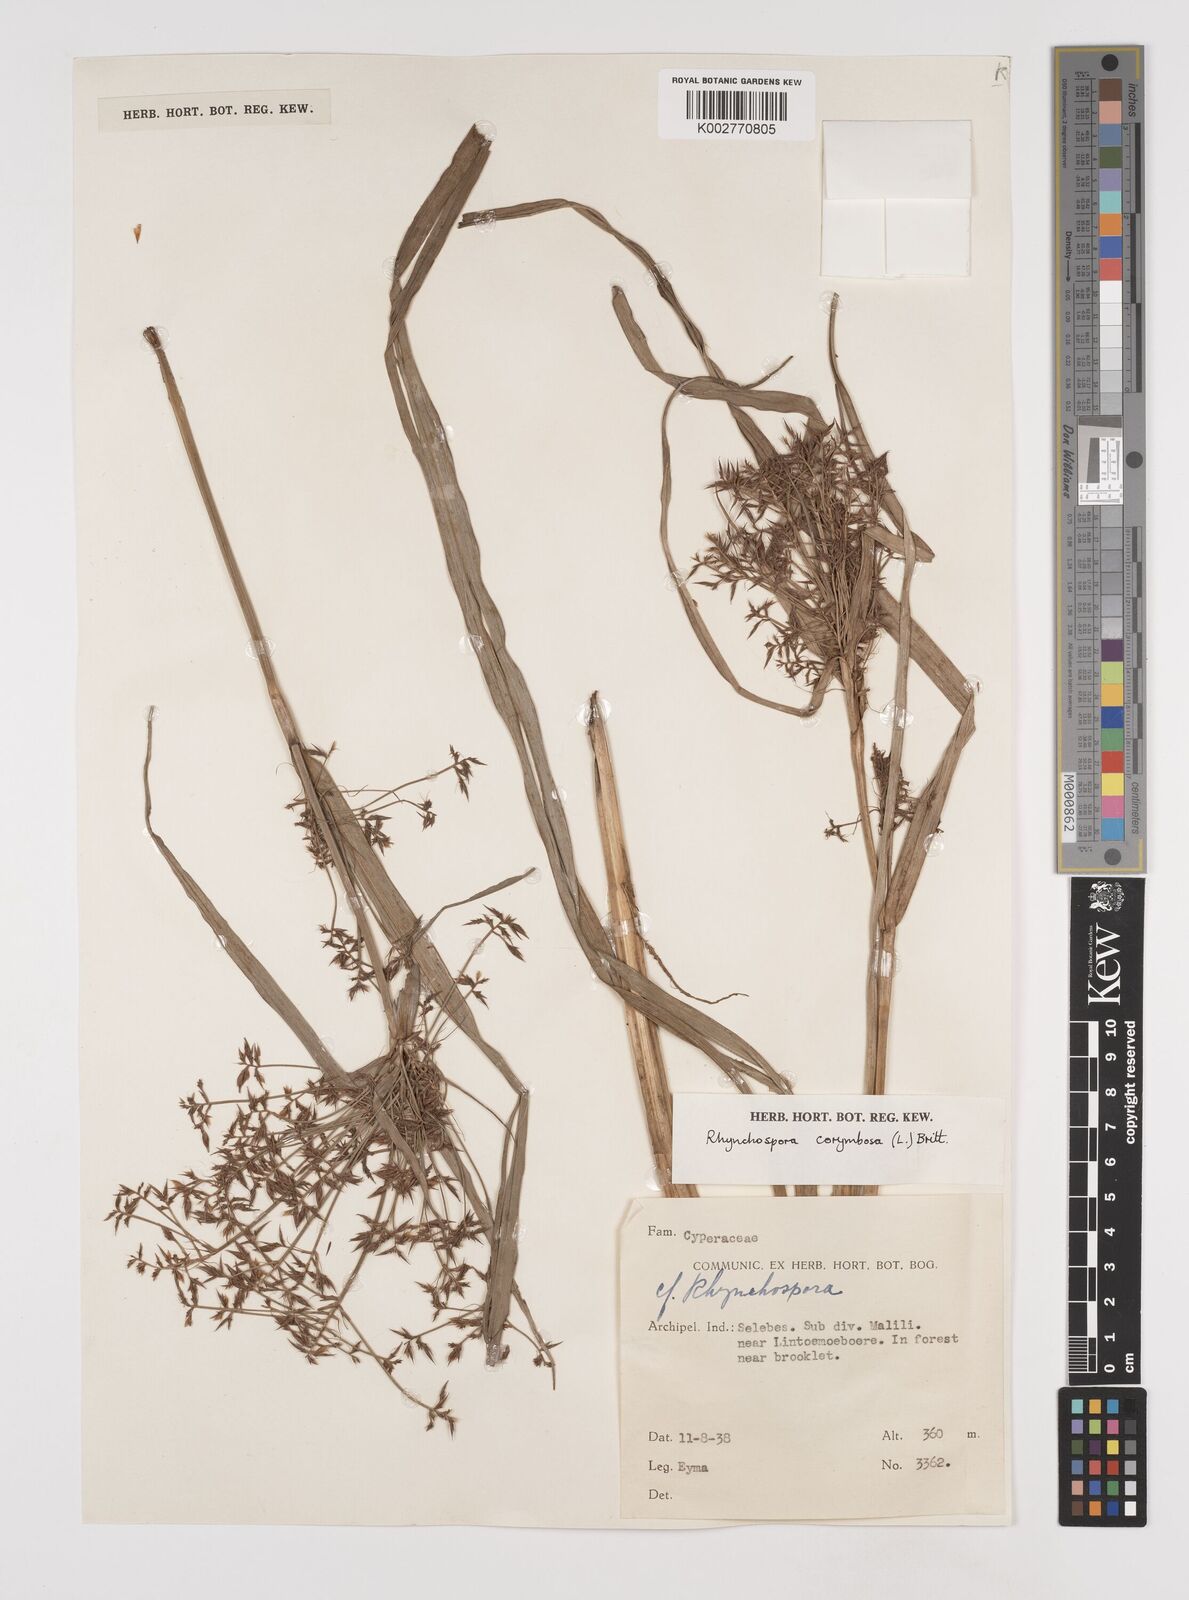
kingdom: Plantae
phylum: Tracheophyta
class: Liliopsida
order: Poales
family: Cyperaceae
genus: Rhynchospora
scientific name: Rhynchospora corymbosa
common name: Golden beak sedge
